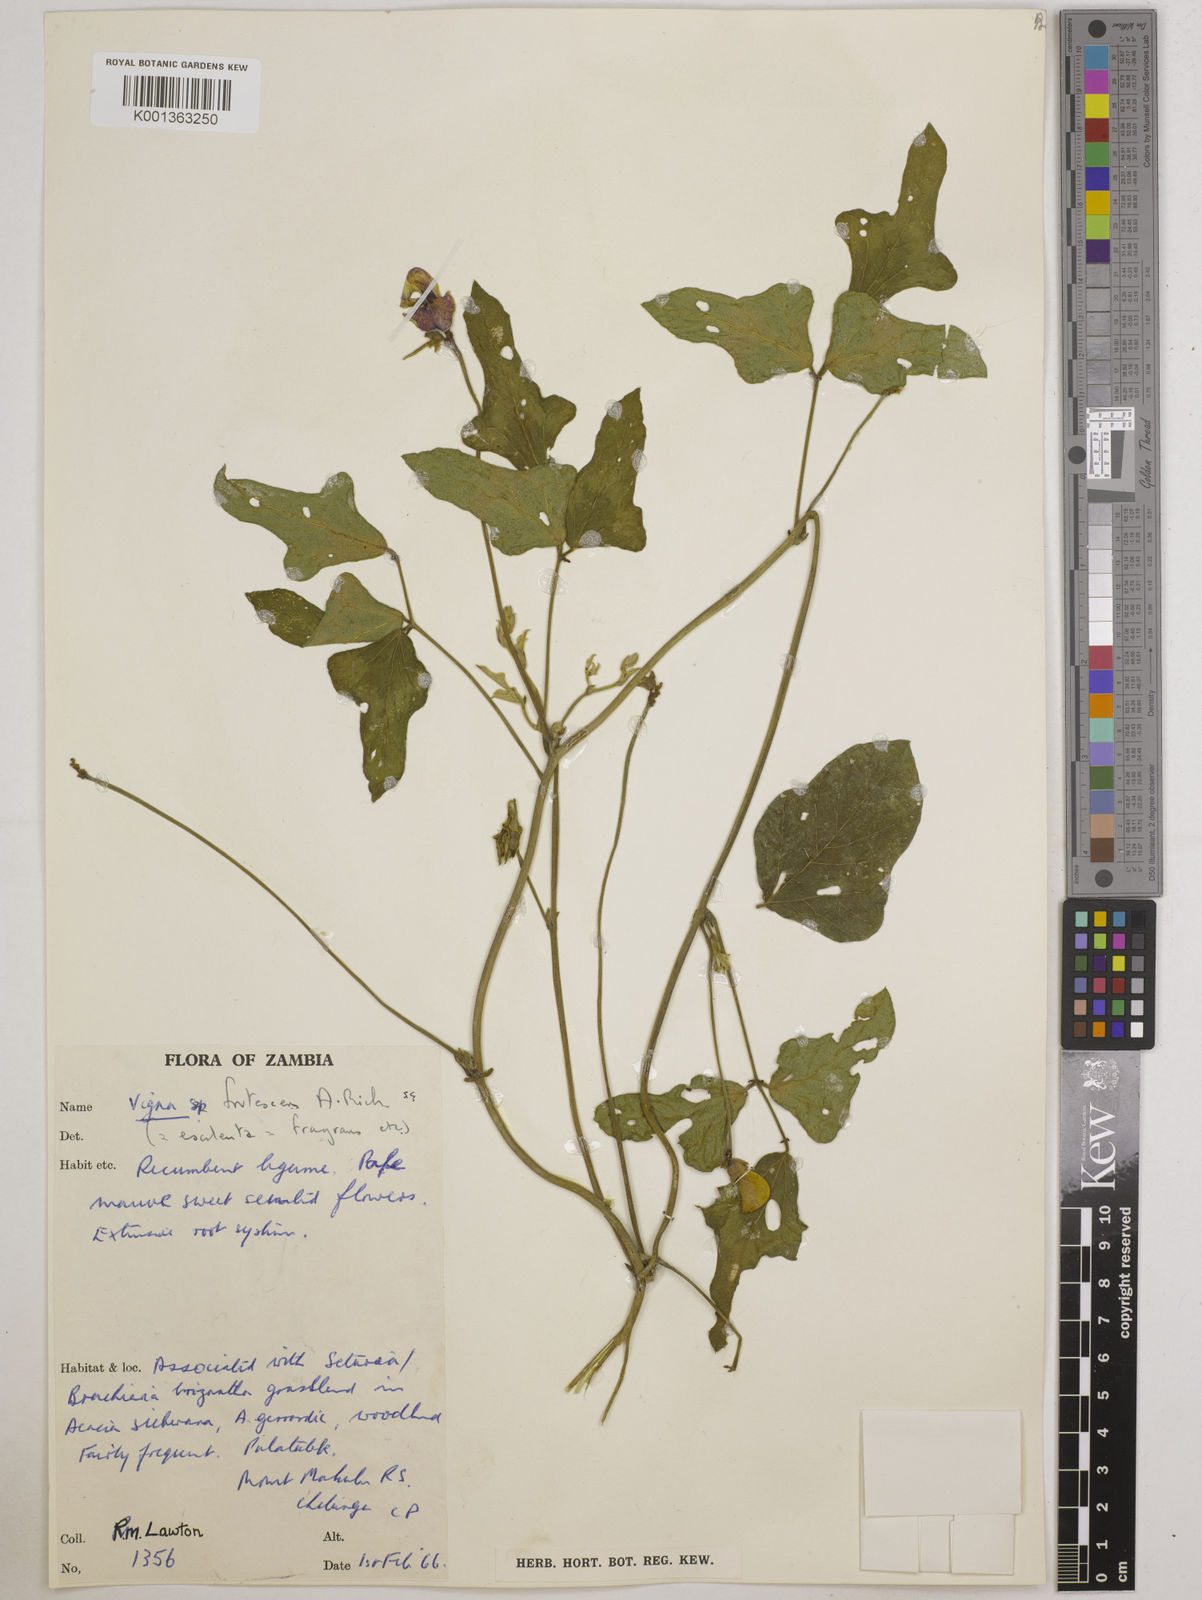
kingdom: Plantae
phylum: Tracheophyta
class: Magnoliopsida
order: Fabales
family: Fabaceae
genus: Vigna
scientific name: Vigna
